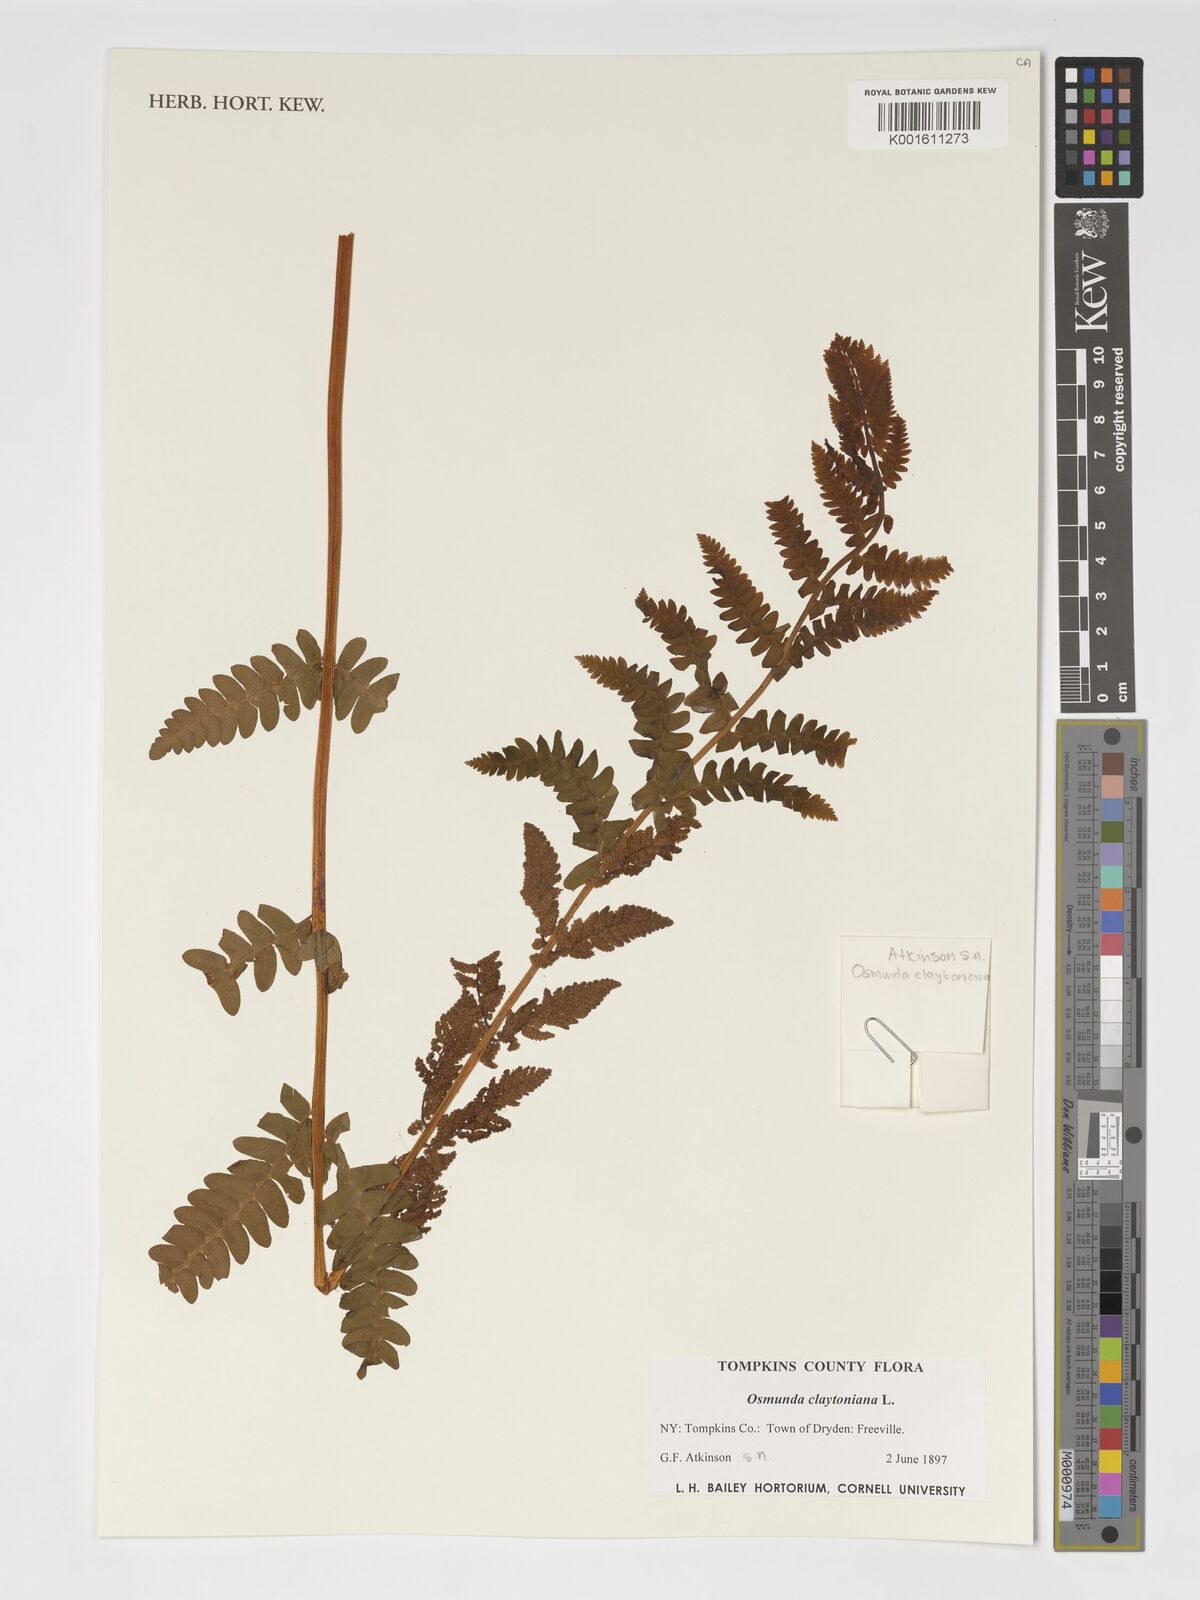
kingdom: Plantae
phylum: Tracheophyta
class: Polypodiopsida
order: Osmundales
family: Osmundaceae
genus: Claytosmunda
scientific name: Claytosmunda claytoniana
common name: Clayton's fern
